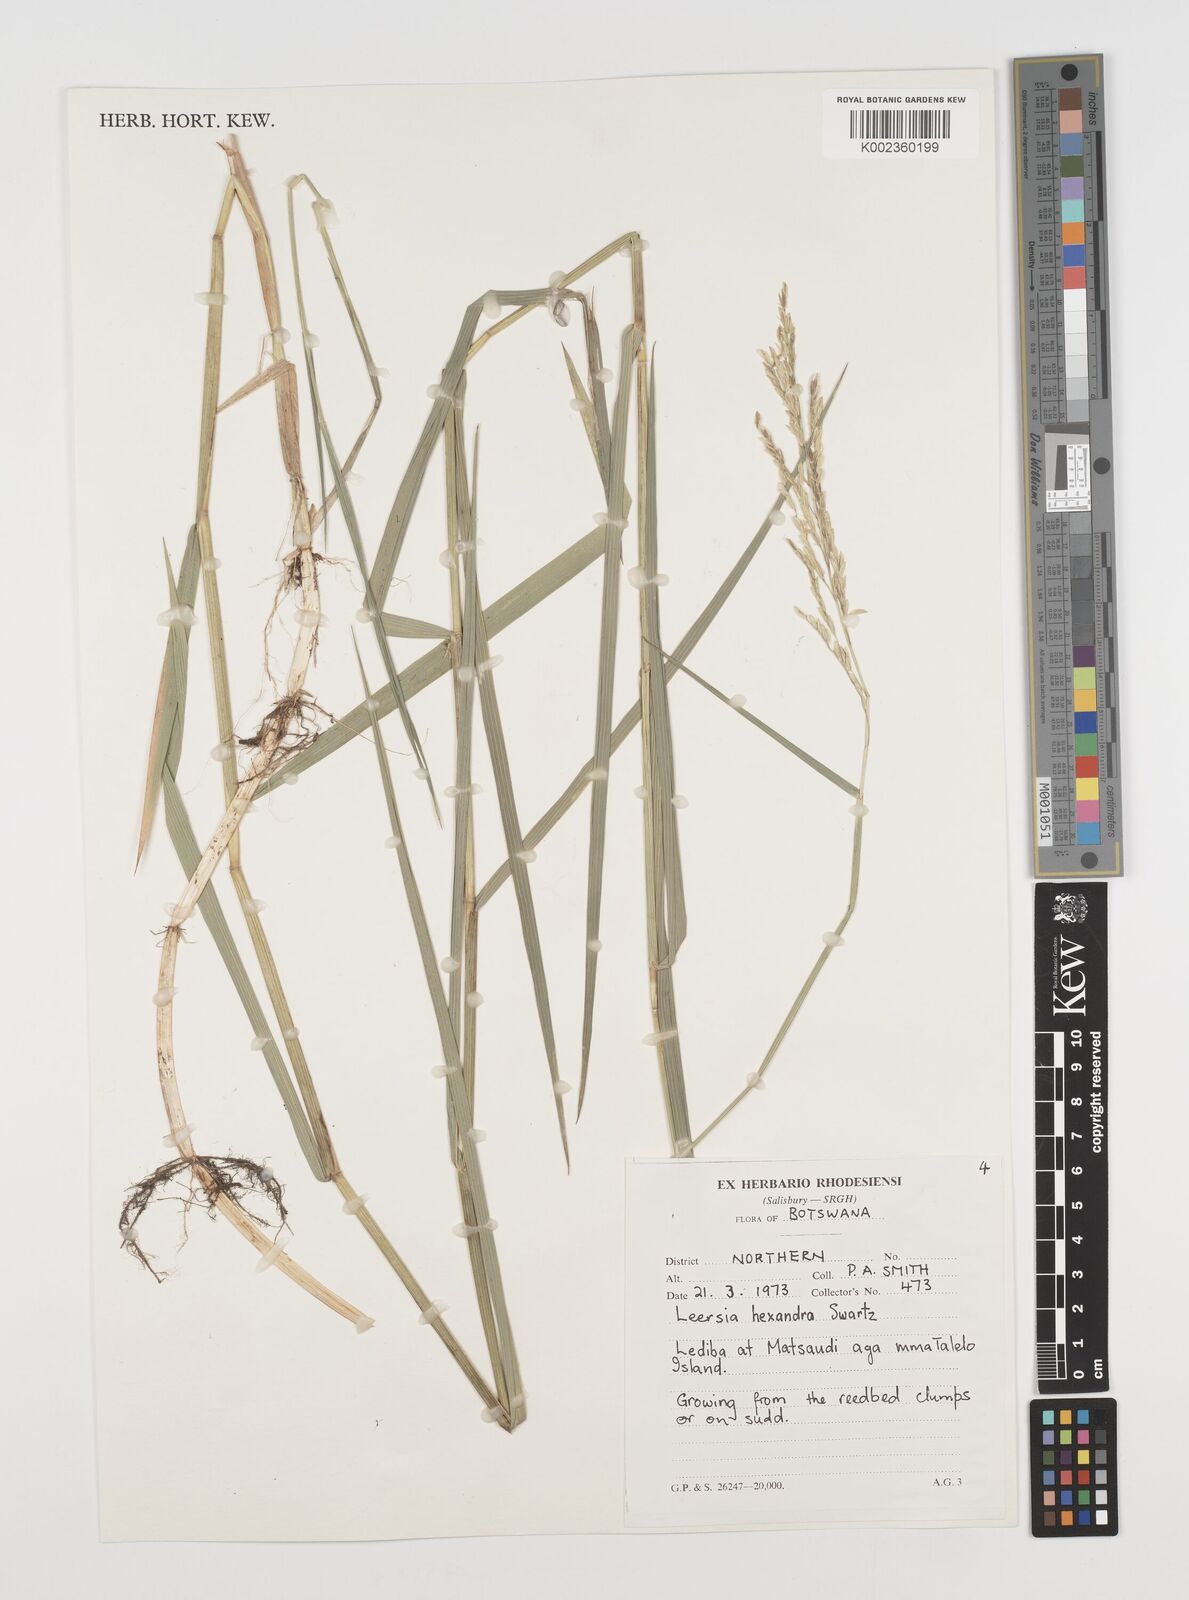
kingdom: Plantae
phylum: Tracheophyta
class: Liliopsida
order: Poales
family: Poaceae
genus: Leersia
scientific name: Leersia hexandra
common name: Southern cut grass
